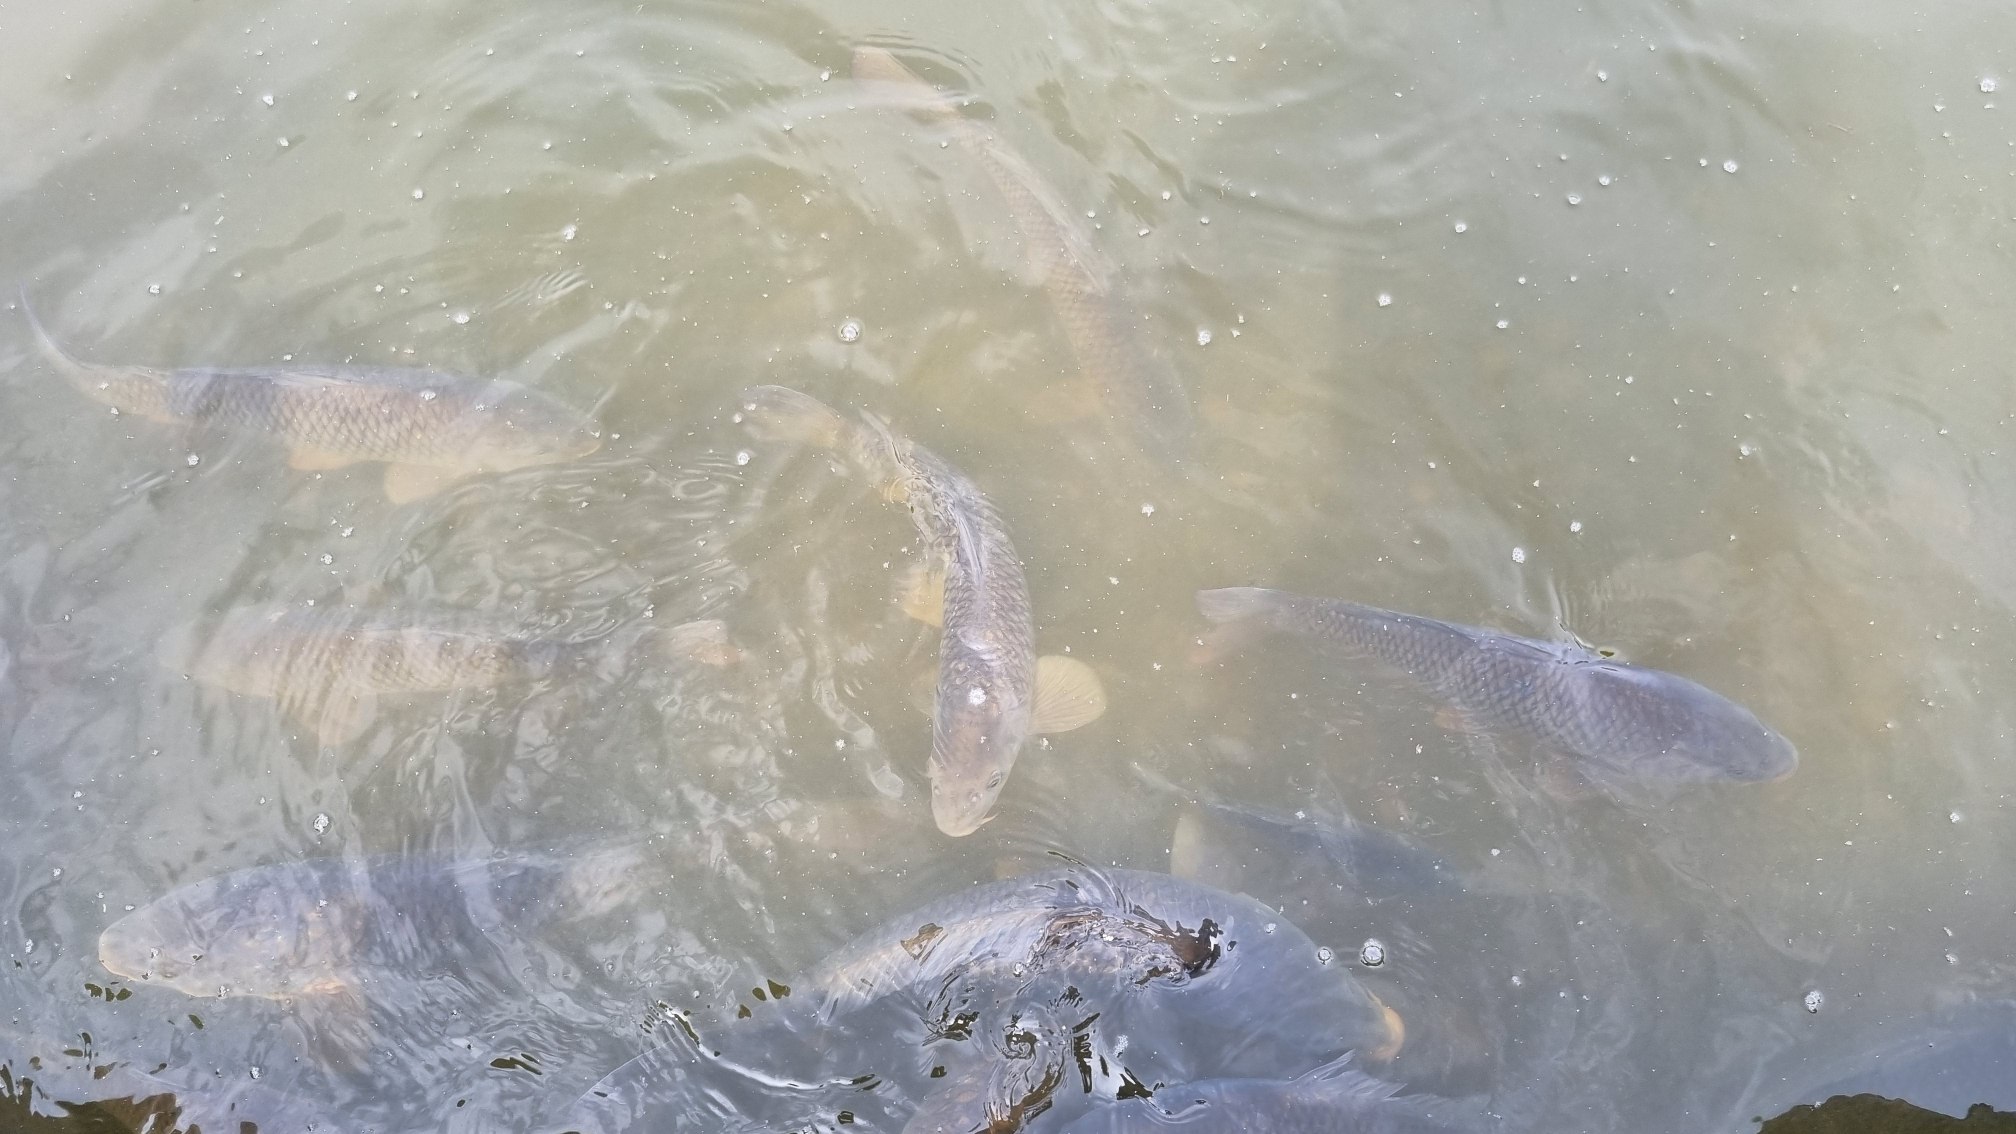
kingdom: Animalia
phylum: Chordata
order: Cypriniformes
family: Cyprinidae
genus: Cyprinus
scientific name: Cyprinus carpio
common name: Karpe
